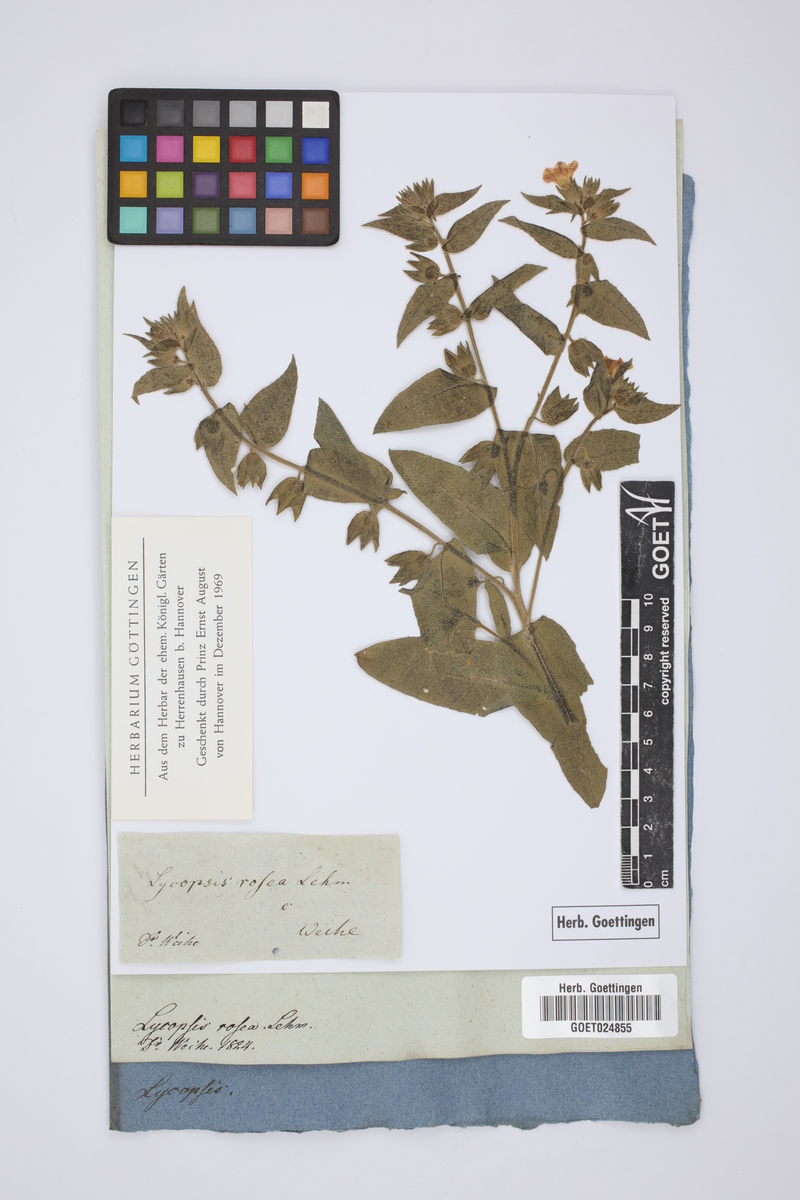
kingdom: Plantae
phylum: Tracheophyta
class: Magnoliopsida
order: Boraginales
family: Boraginaceae
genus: Nonea
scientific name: Nonea rosea
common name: Pink nonea
